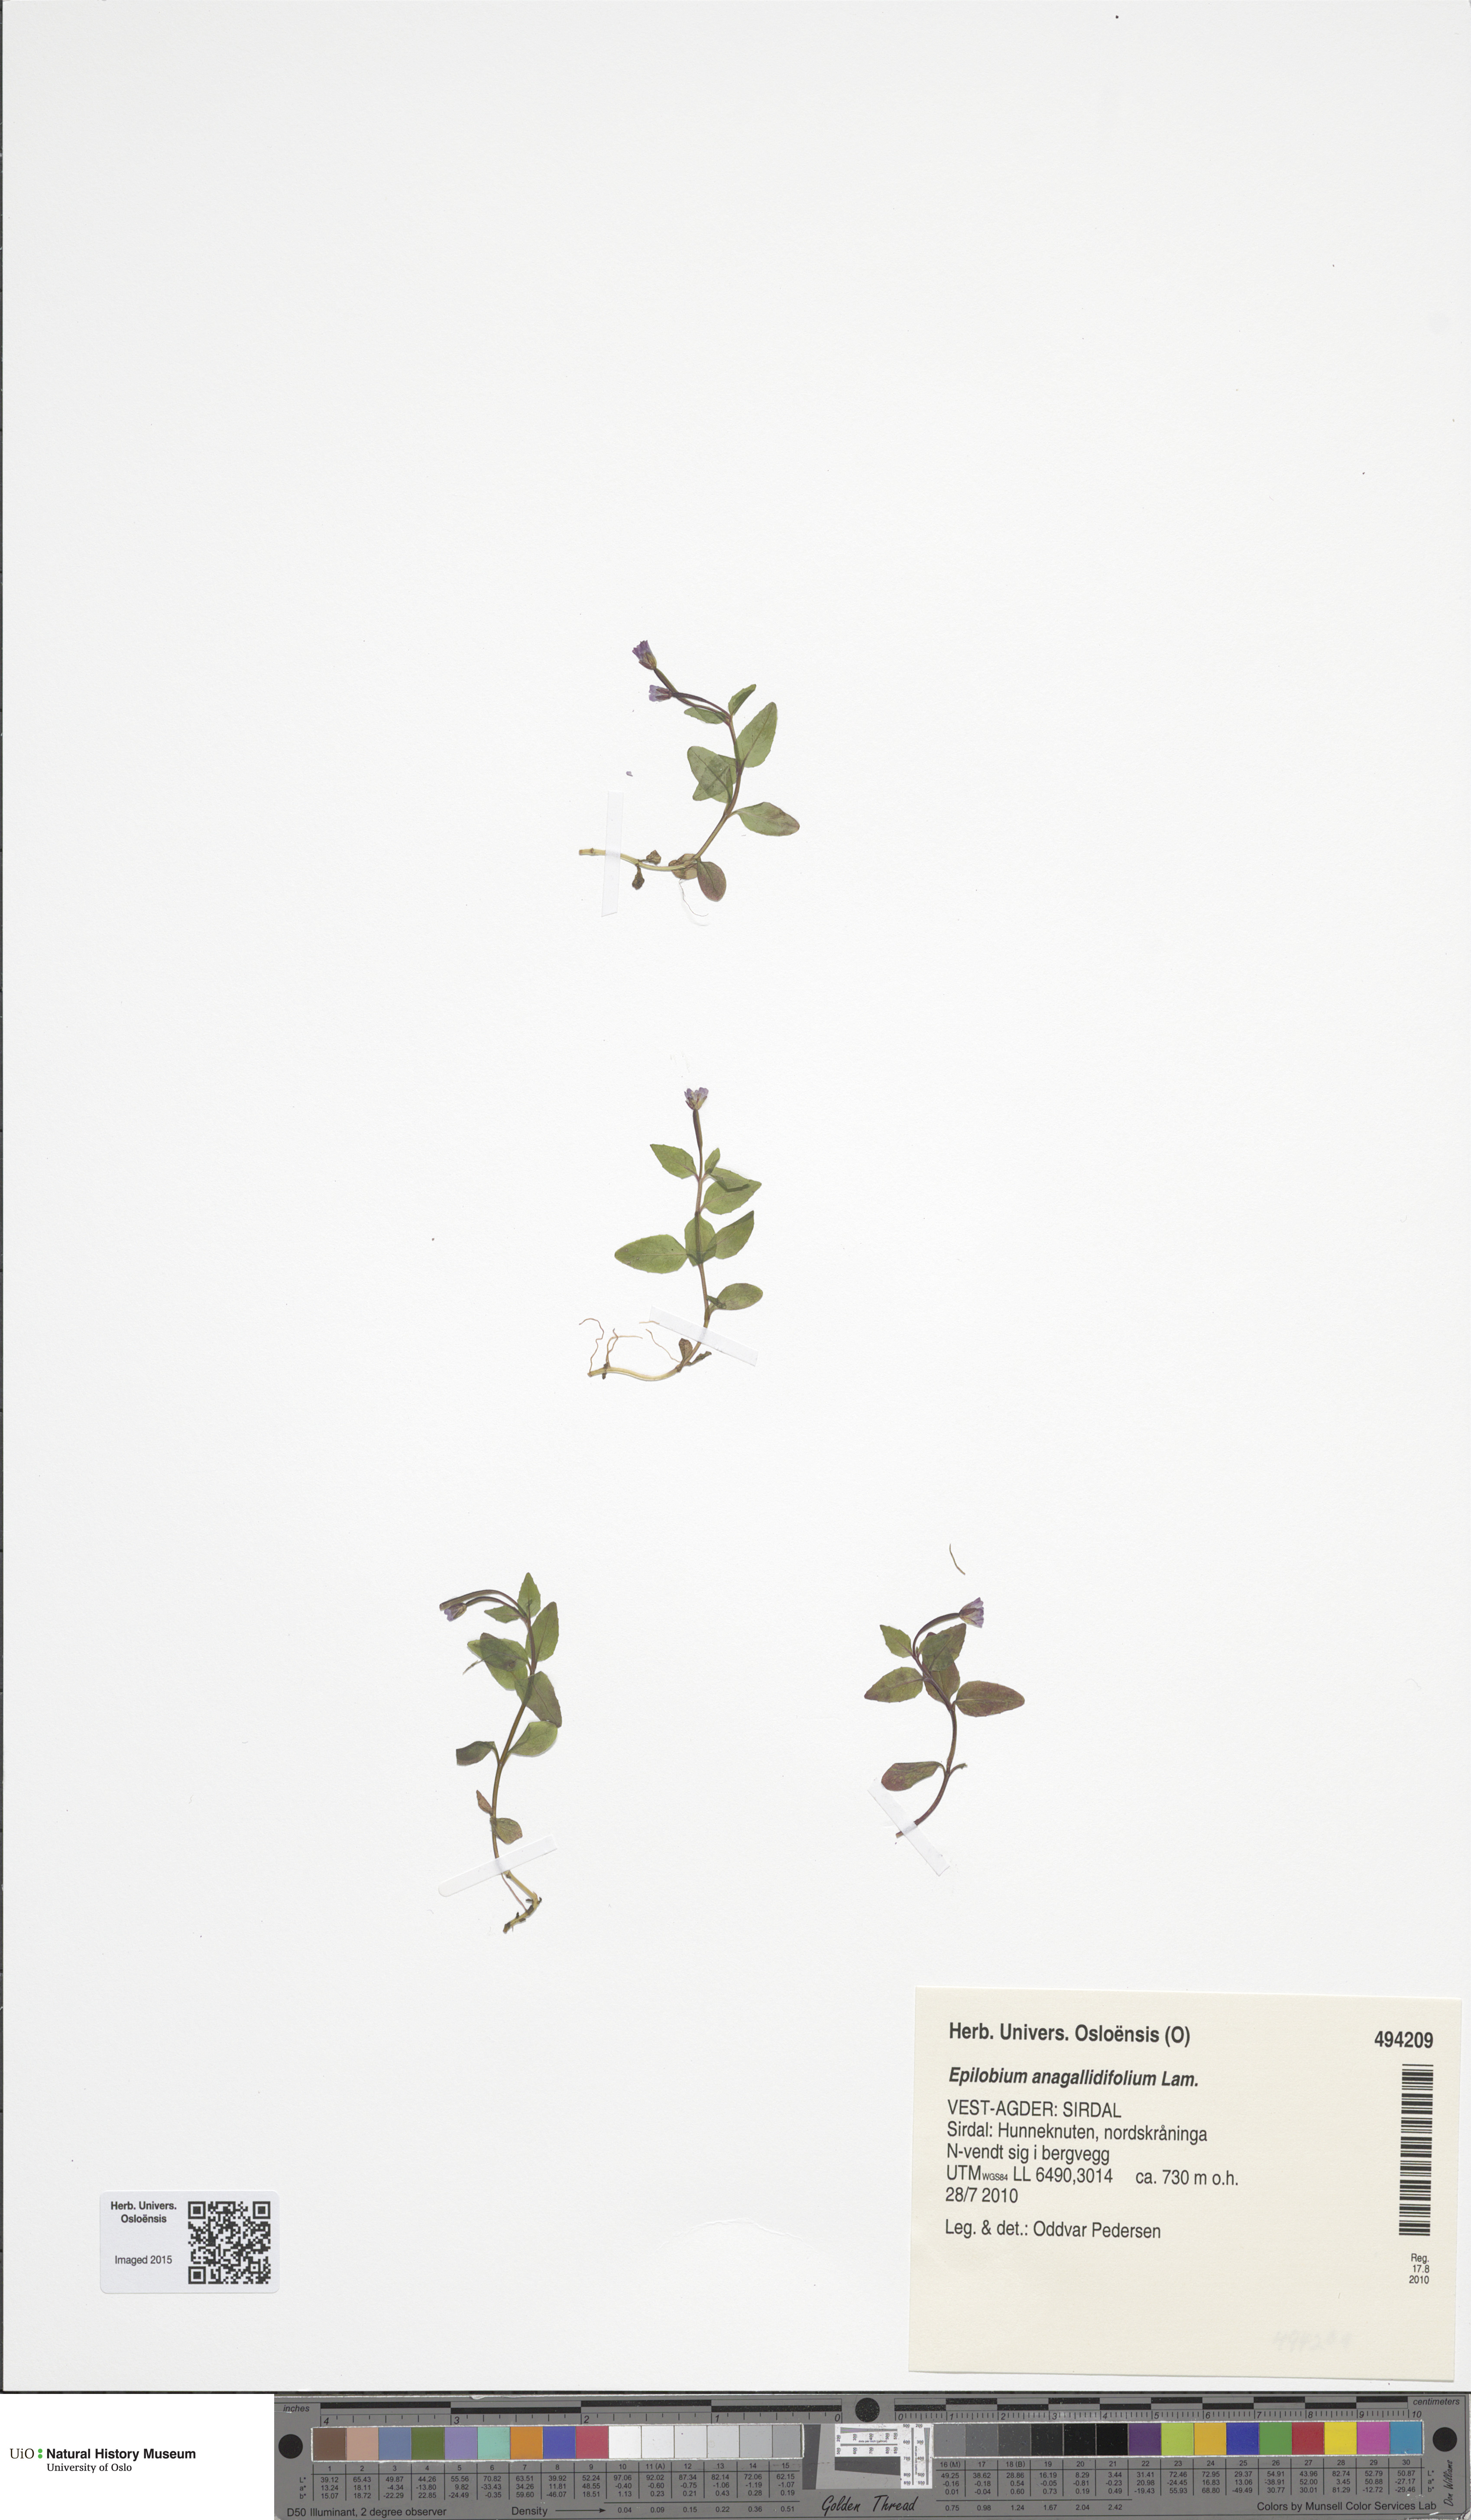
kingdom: Plantae
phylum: Tracheophyta
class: Magnoliopsida
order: Myrtales
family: Onagraceae
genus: Epilobium
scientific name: Epilobium anagallidifolium
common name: Alpine willowherb
